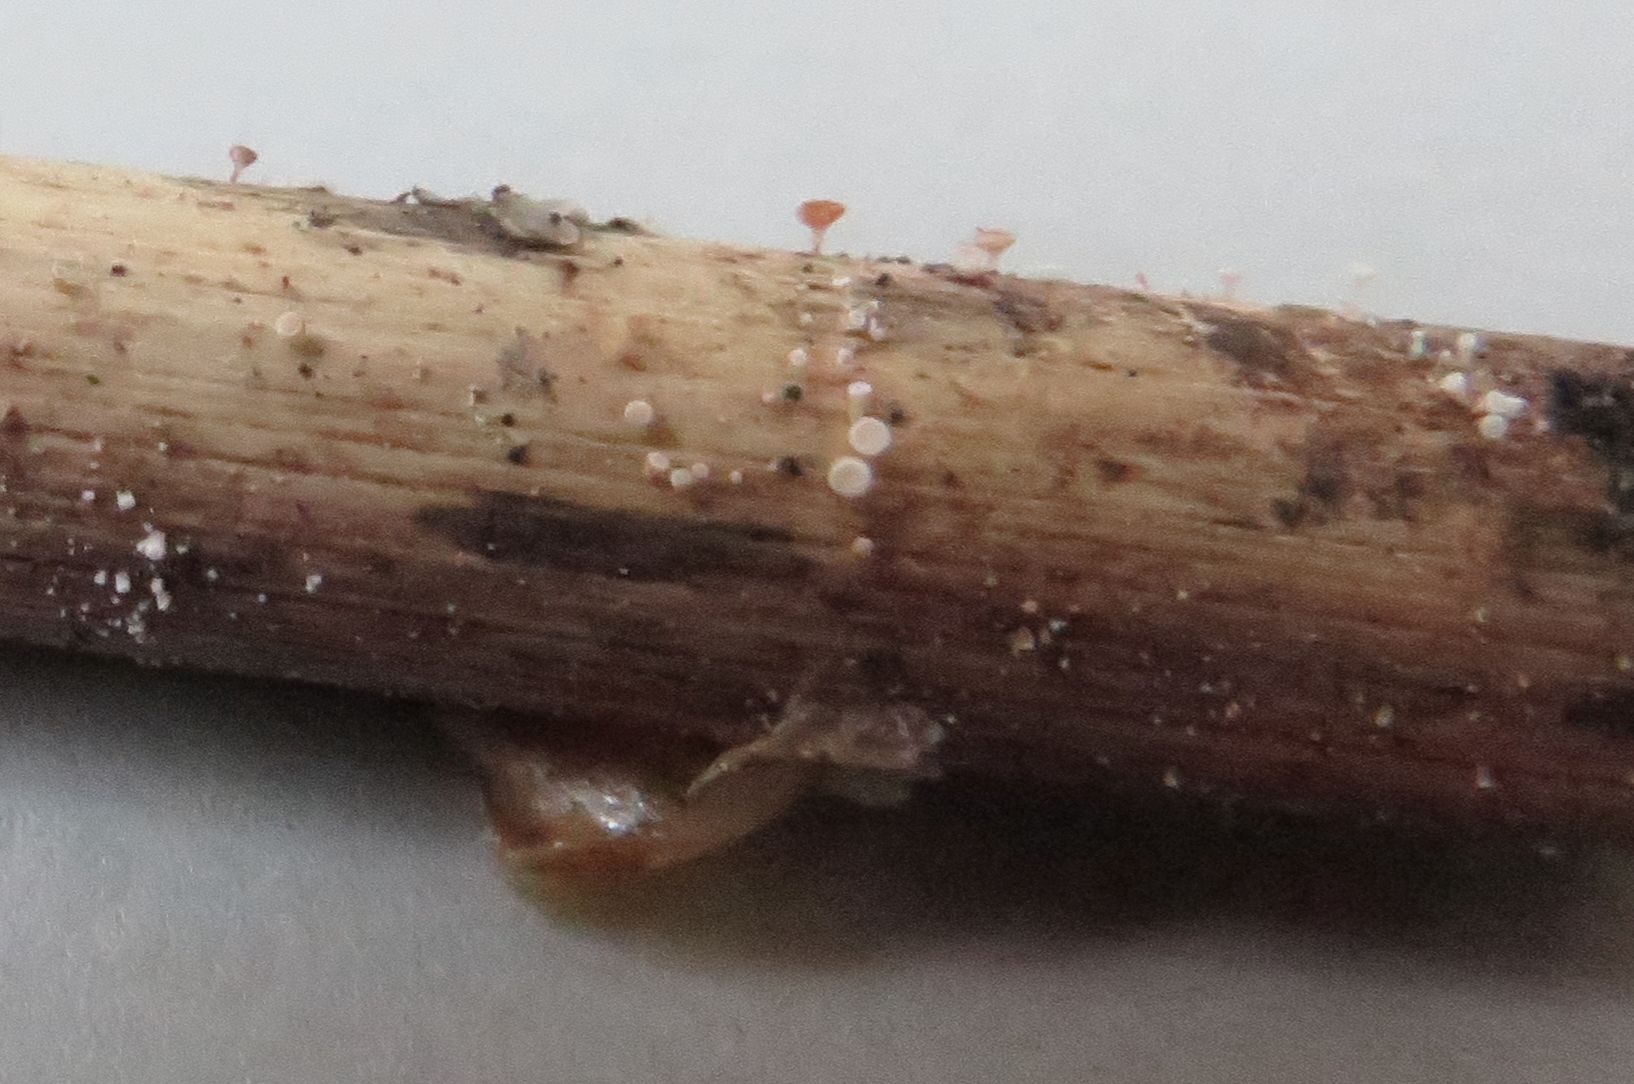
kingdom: Fungi
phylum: Ascomycota
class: Leotiomycetes
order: Helotiales
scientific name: Helotiales
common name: stilkskiveordenen
